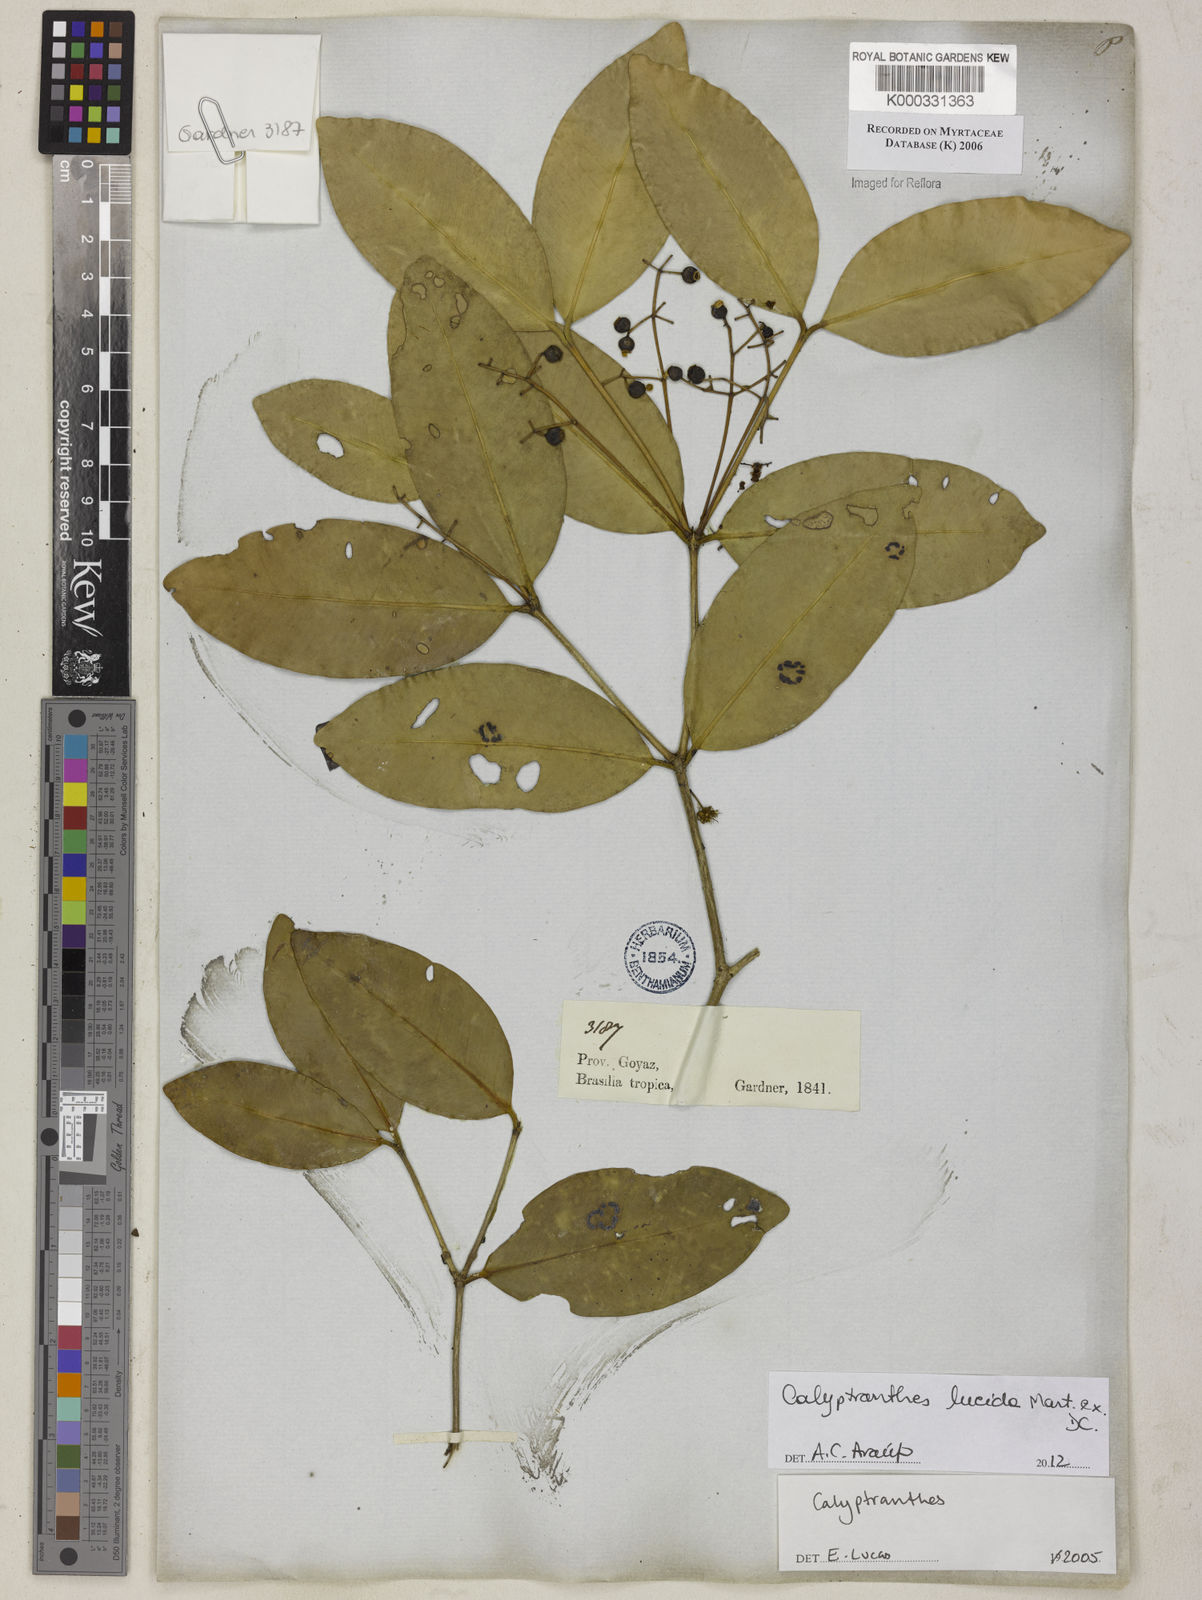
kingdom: Plantae
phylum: Tracheophyta
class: Magnoliopsida
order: Myrtales
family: Myrtaceae
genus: Calyptranthes
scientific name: Calyptranthes
